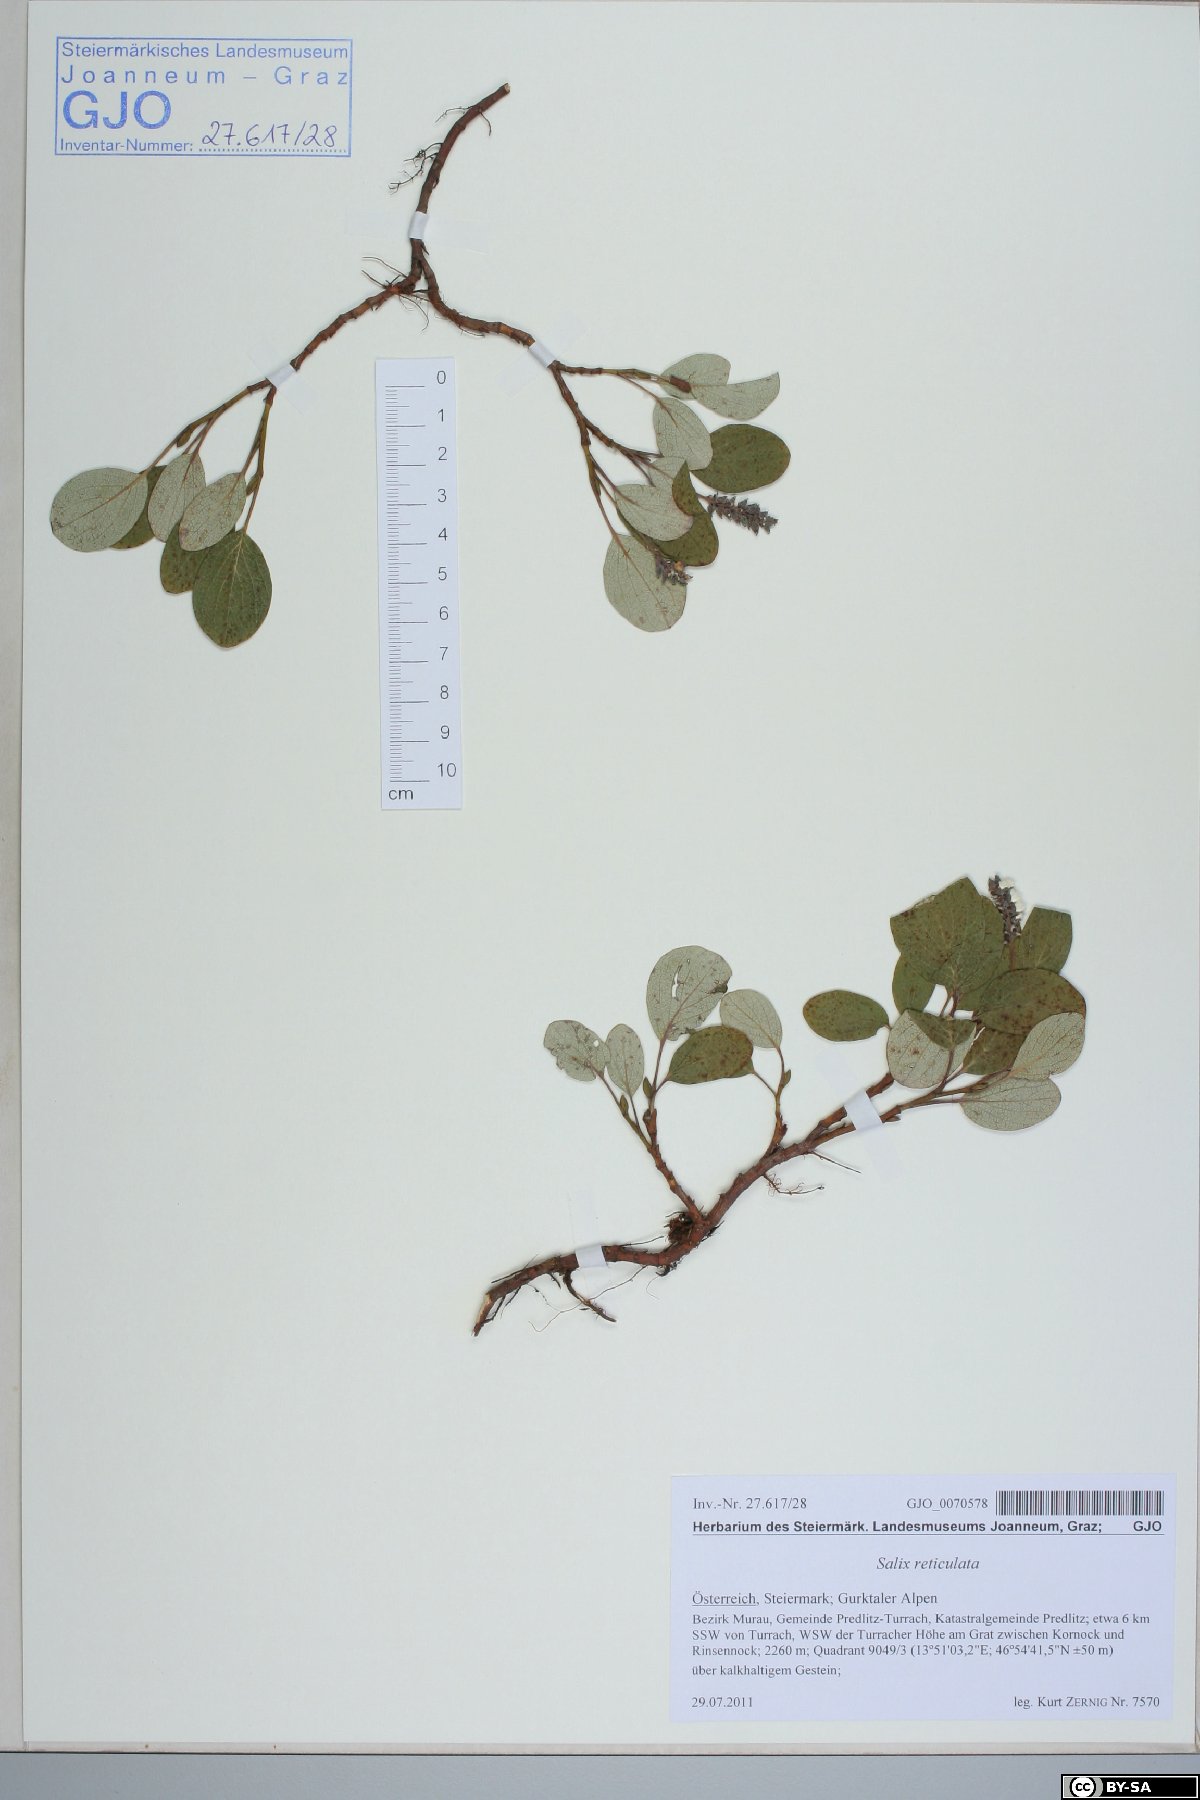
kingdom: Plantae
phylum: Tracheophyta
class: Magnoliopsida
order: Malpighiales
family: Salicaceae
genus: Salix
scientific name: Salix reticulata
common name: Net-leaved willow
